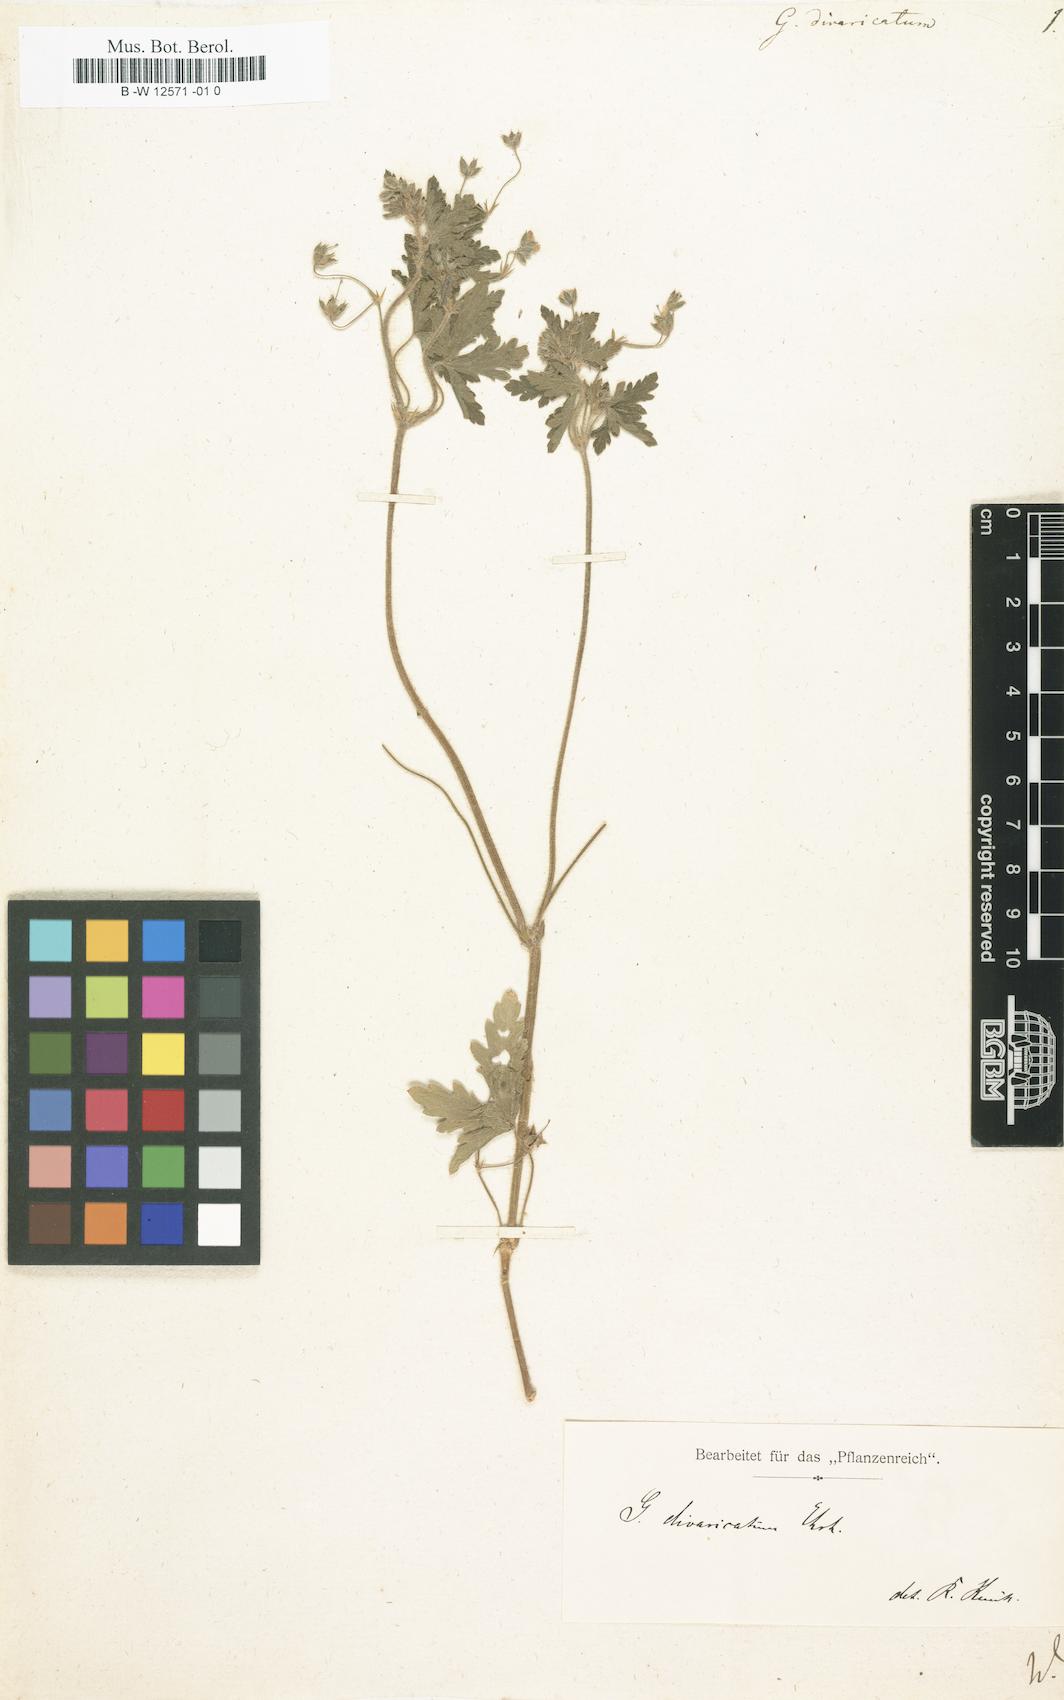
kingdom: Plantae
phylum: Tracheophyta
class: Magnoliopsida
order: Geraniales
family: Geraniaceae
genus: Geranium
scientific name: Geranium divaricatum
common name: Spreading crane's-bill
